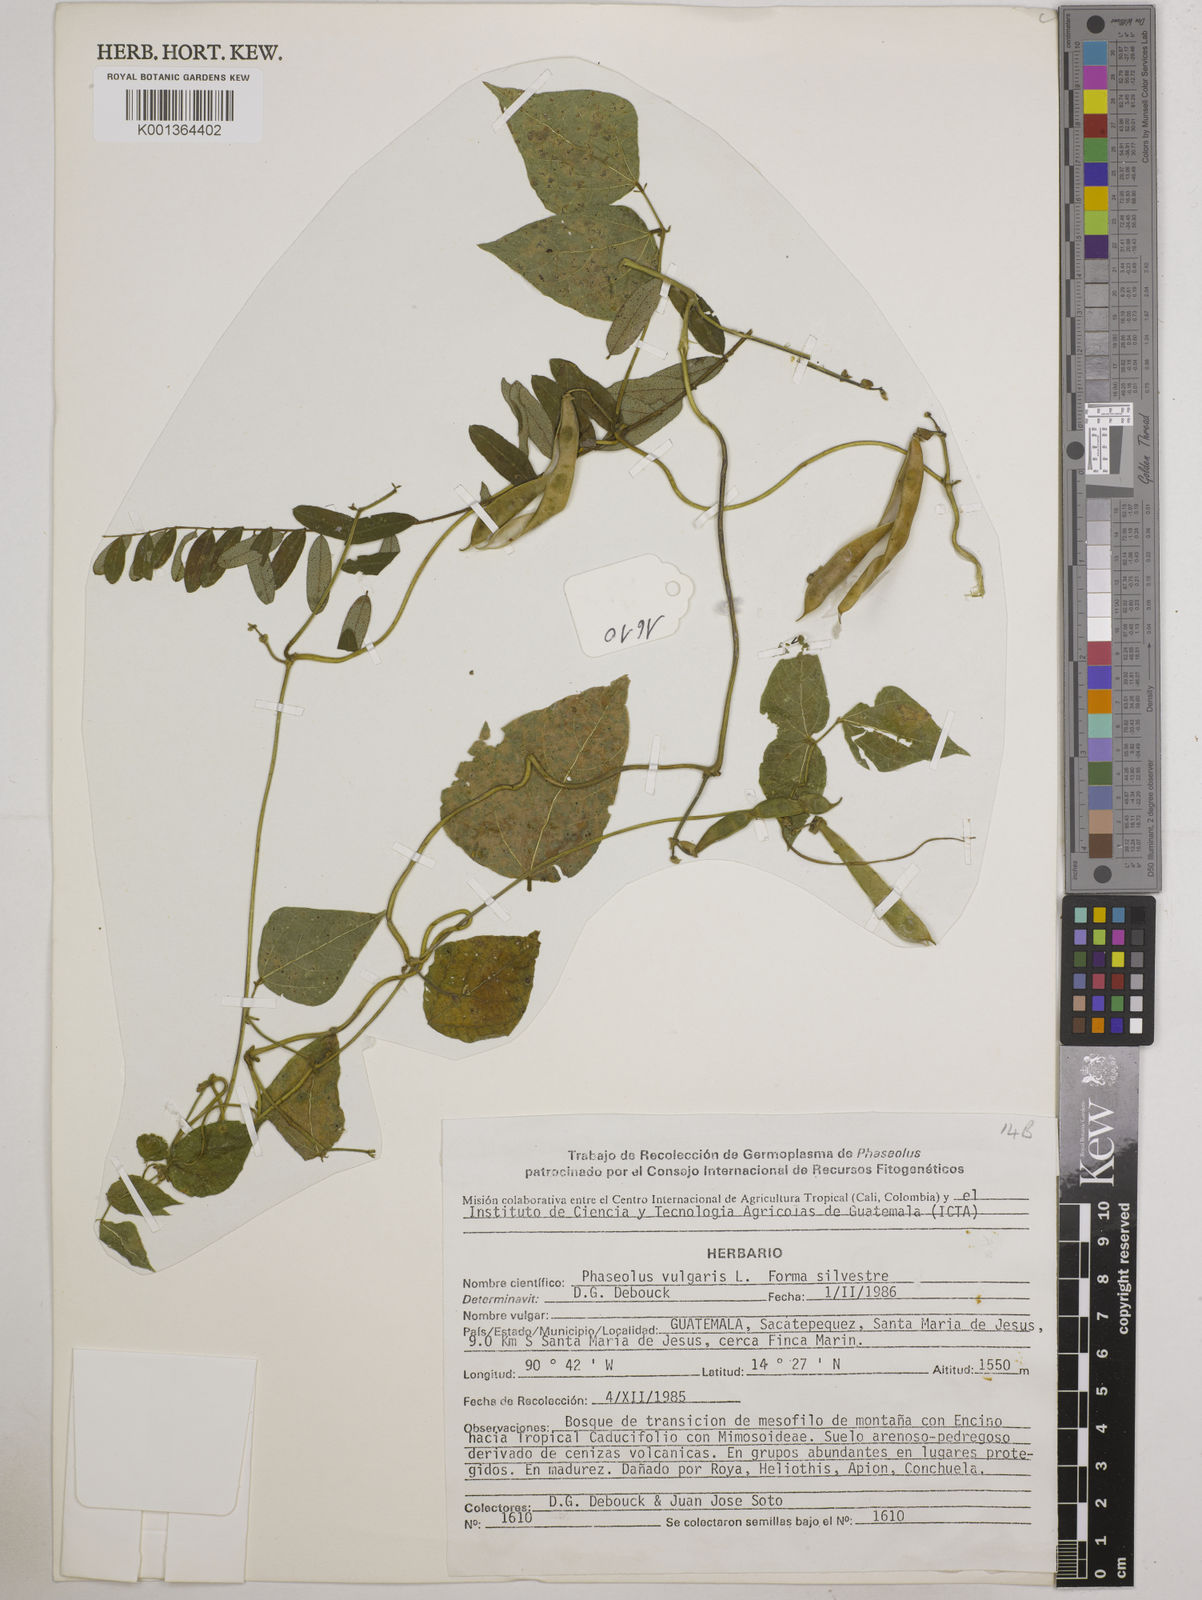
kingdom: Plantae
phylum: Tracheophyta
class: Magnoliopsida
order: Fabales
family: Fabaceae
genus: Phaseolus
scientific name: Phaseolus vulgaris
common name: Bean
